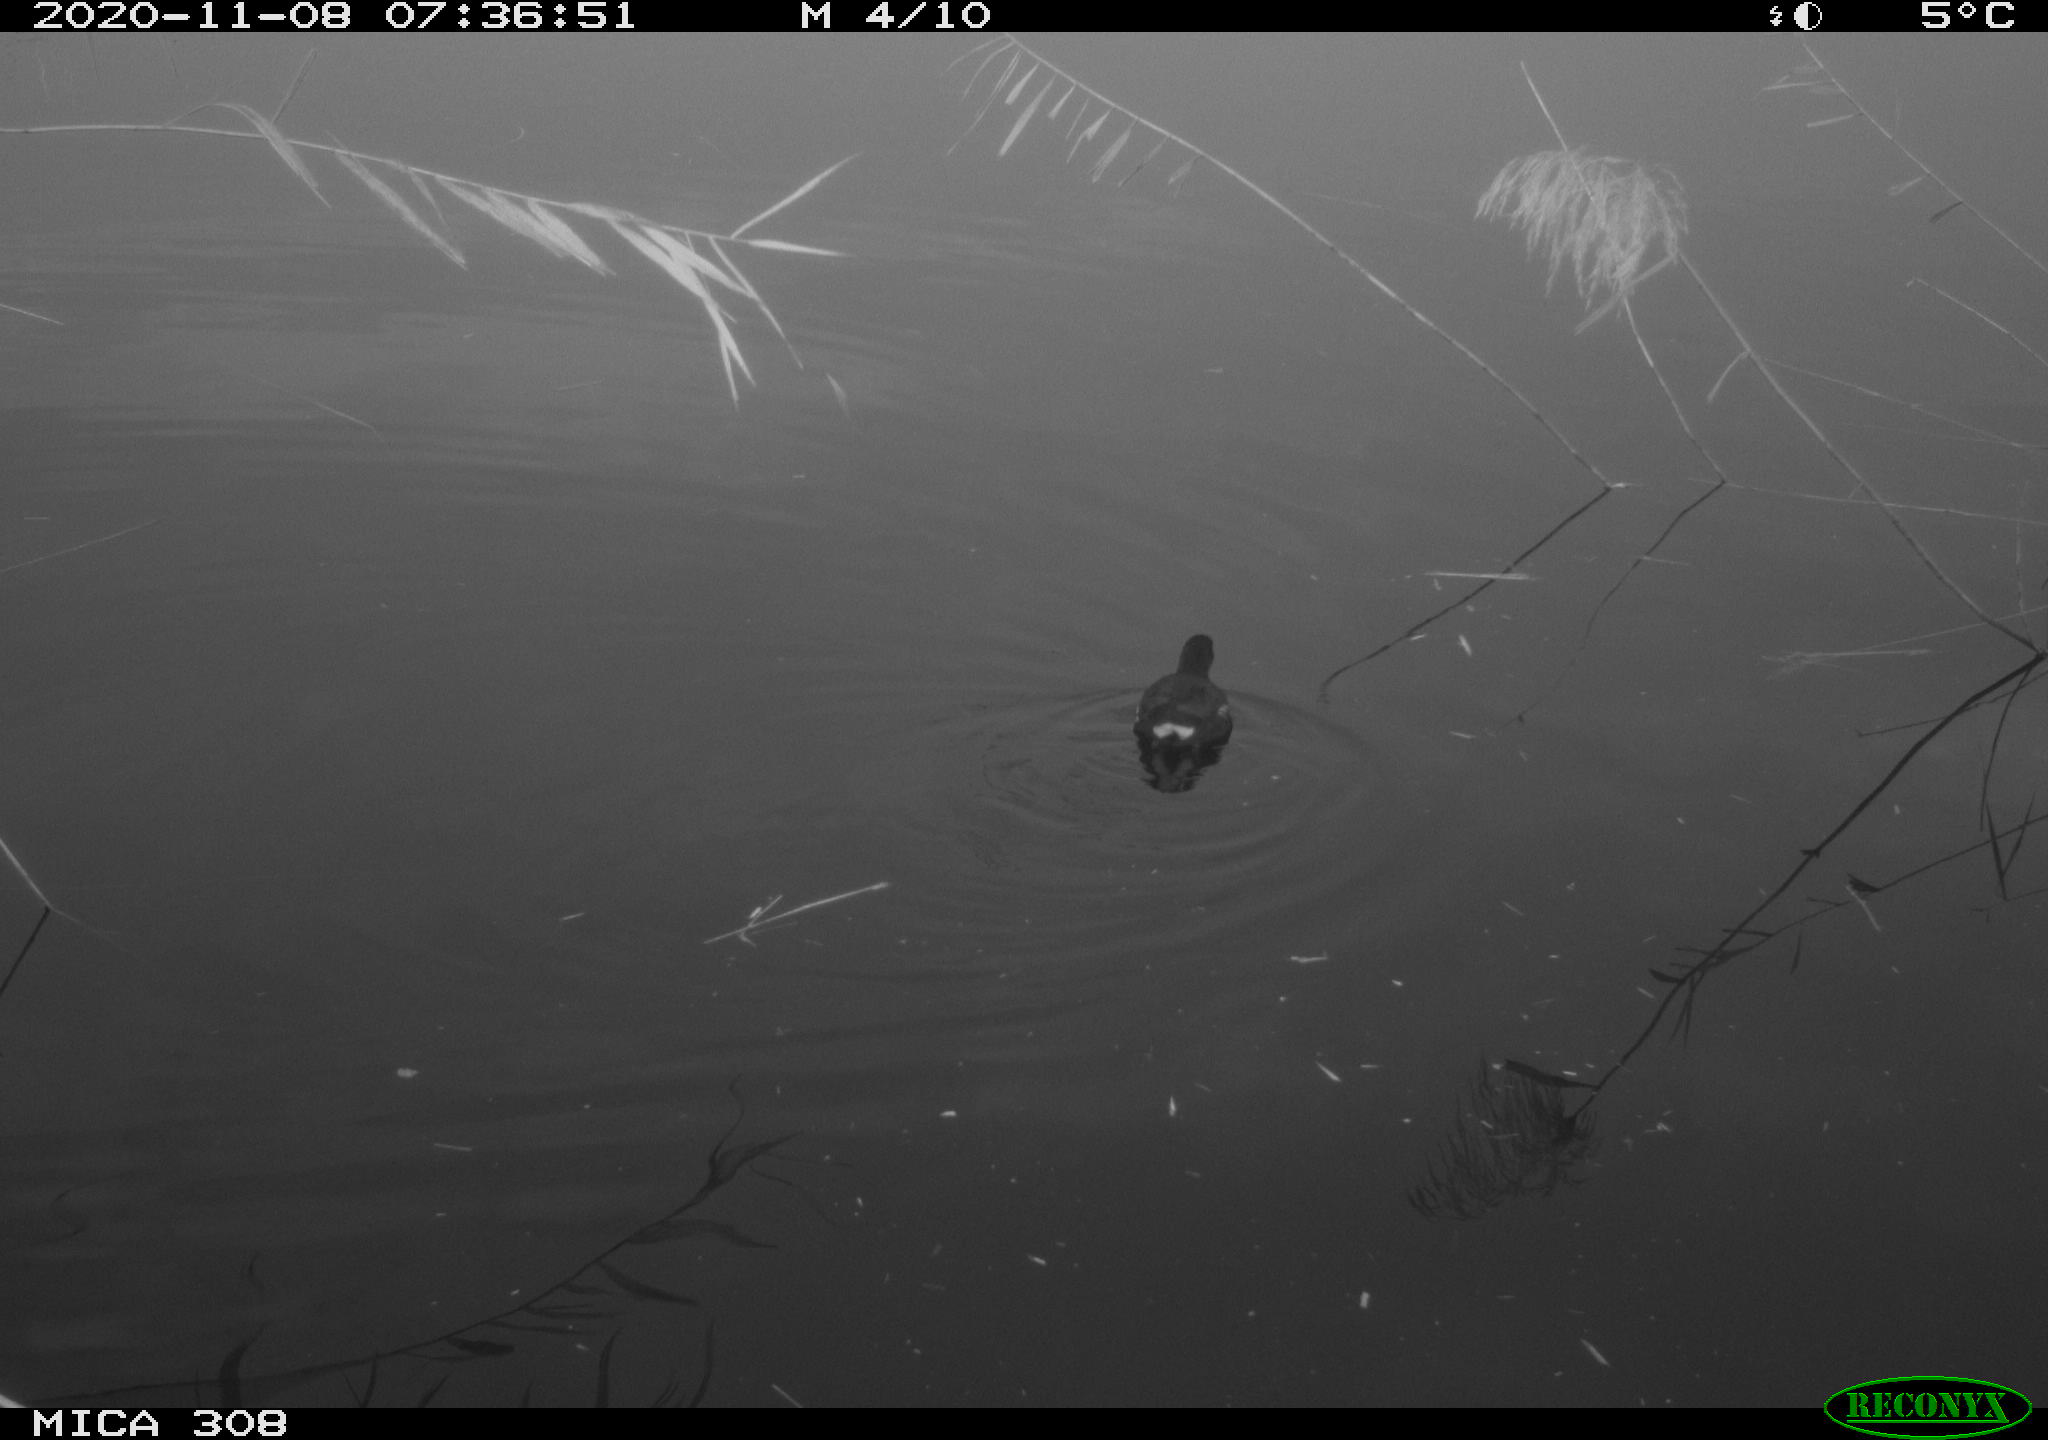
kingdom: Animalia
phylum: Chordata
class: Aves
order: Gruiformes
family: Rallidae
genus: Gallinula
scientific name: Gallinula chloropus
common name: Common moorhen
